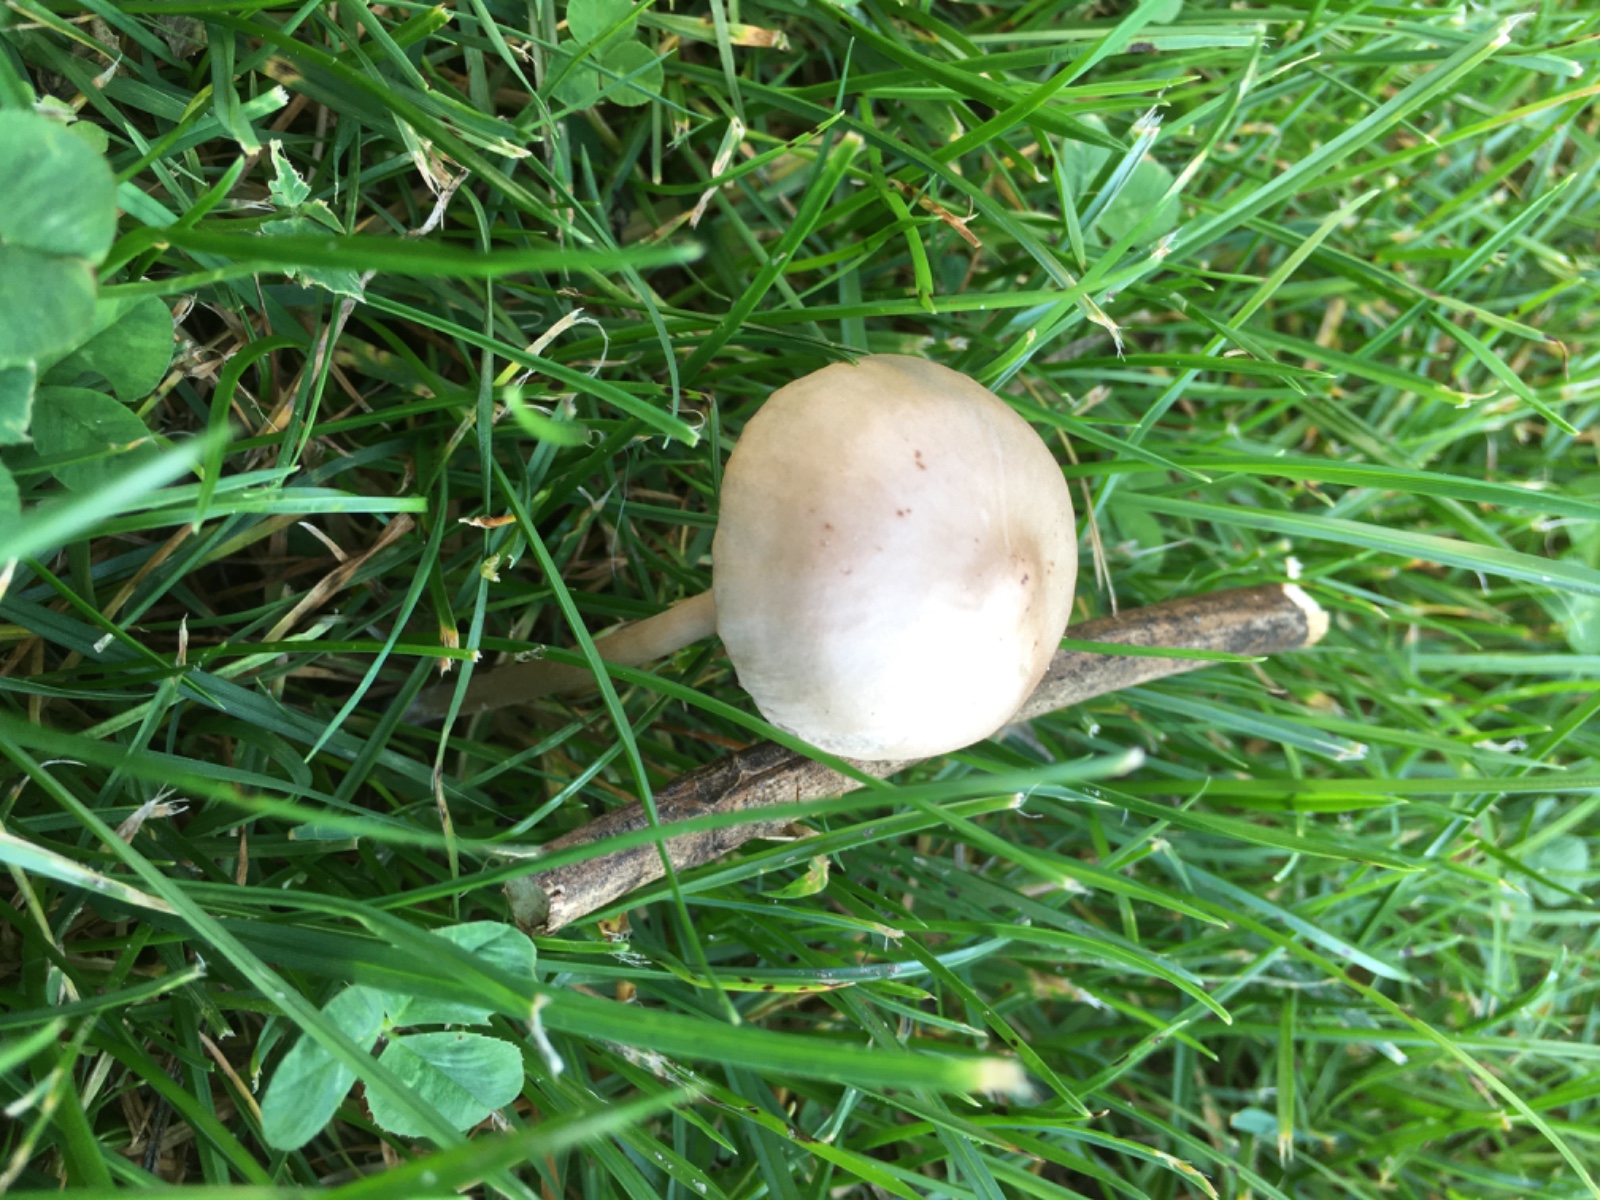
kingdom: Fungi
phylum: Basidiomycota
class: Agaricomycetes
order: Agaricales
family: Bolbitiaceae
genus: Panaeolina
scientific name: Panaeolina foenisecii
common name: høslætsvamp
